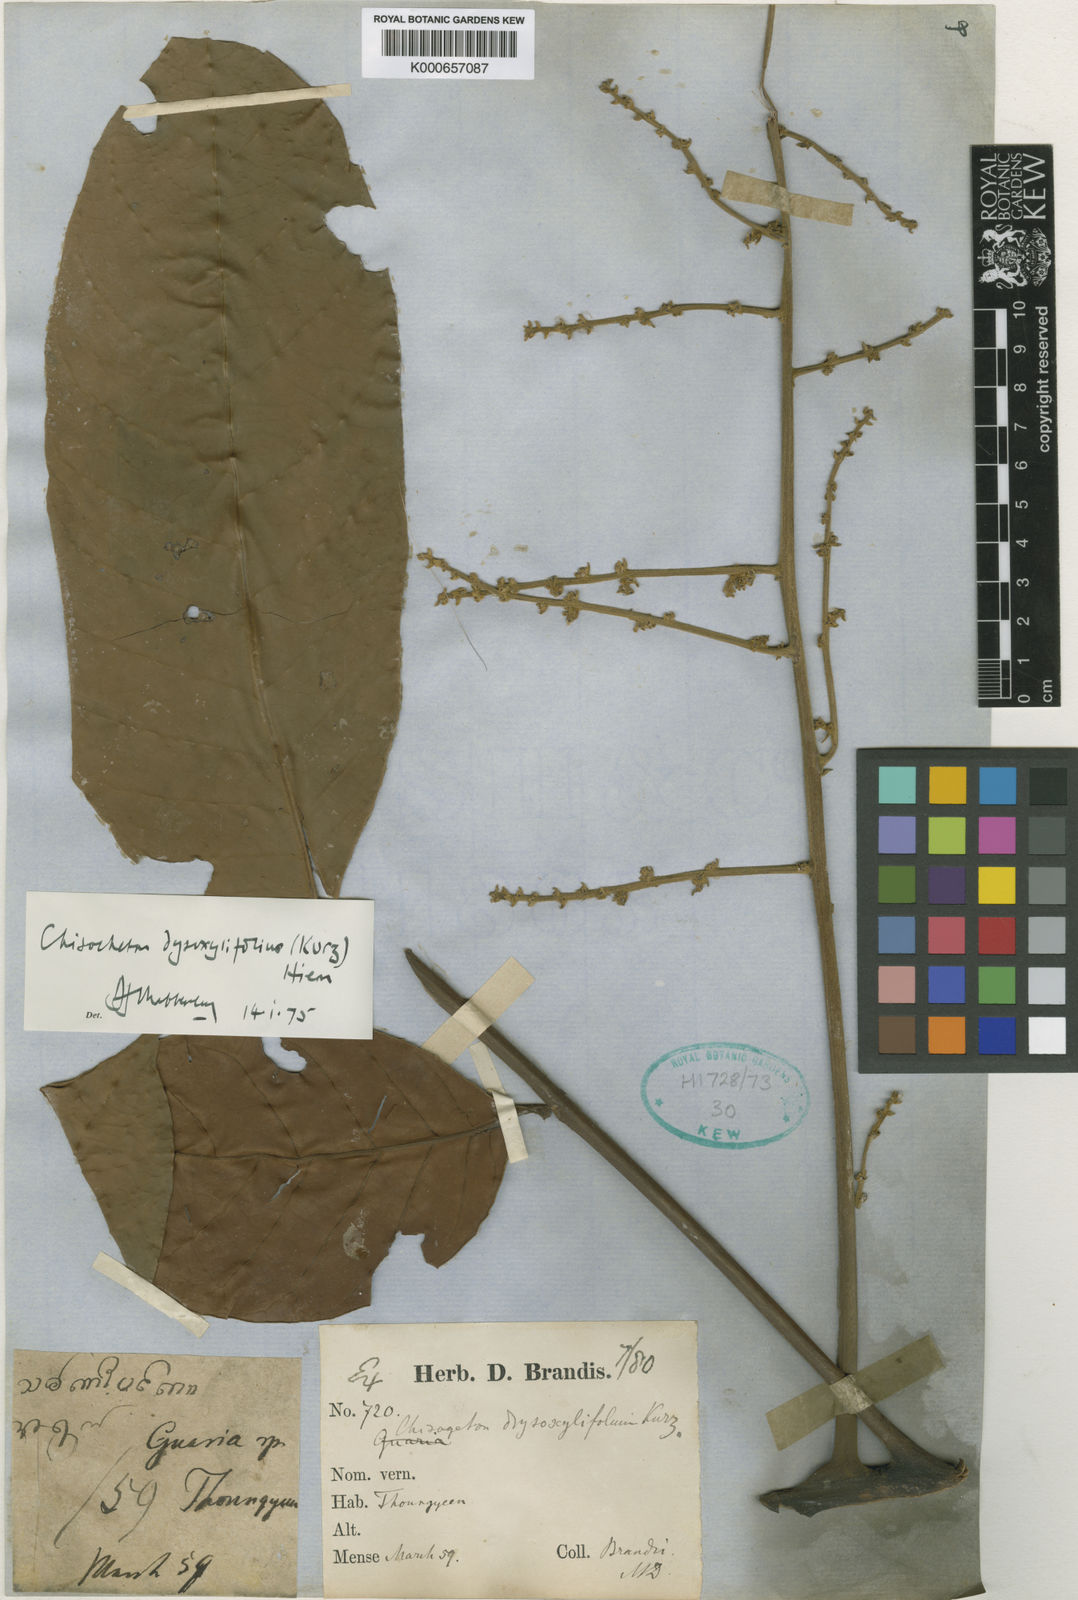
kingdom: Plantae
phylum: Tracheophyta
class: Magnoliopsida
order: Sapindales
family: Meliaceae
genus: Chisocheton
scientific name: Chisocheton dysoxylifolius
